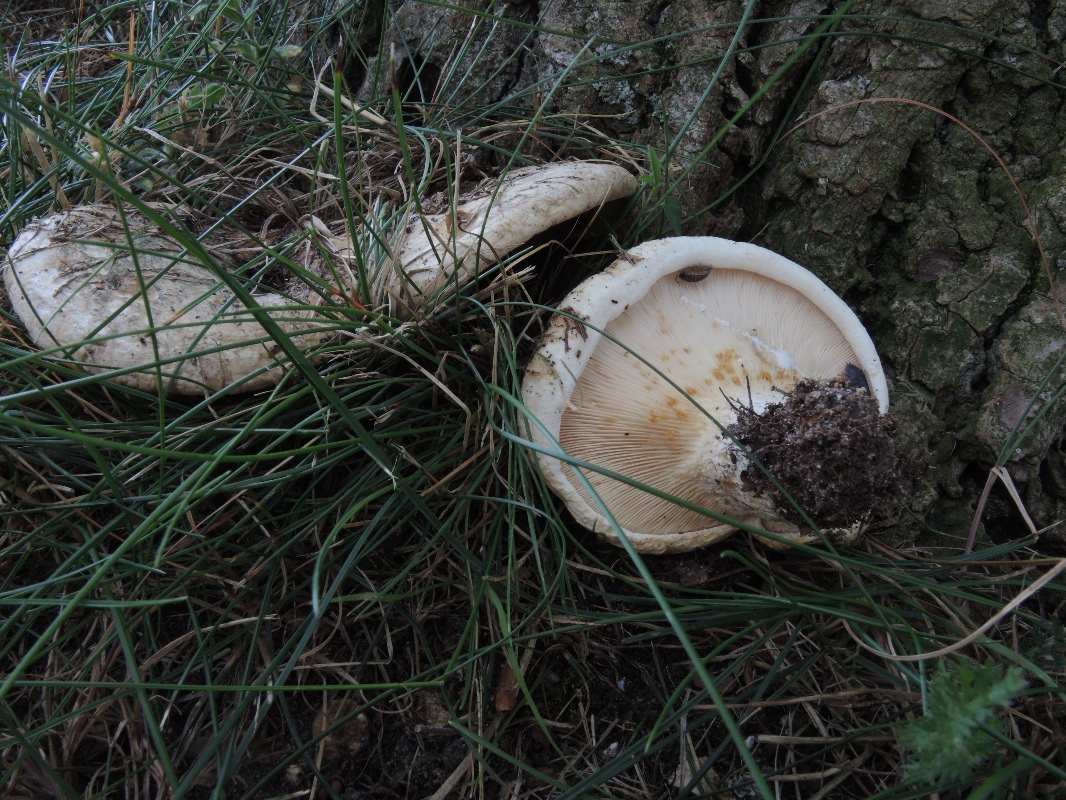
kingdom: Fungi
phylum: Basidiomycota
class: Agaricomycetes
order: Russulales
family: Russulaceae
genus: Lactarius
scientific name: Lactarius controversus
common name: rosabladet mælkehat
